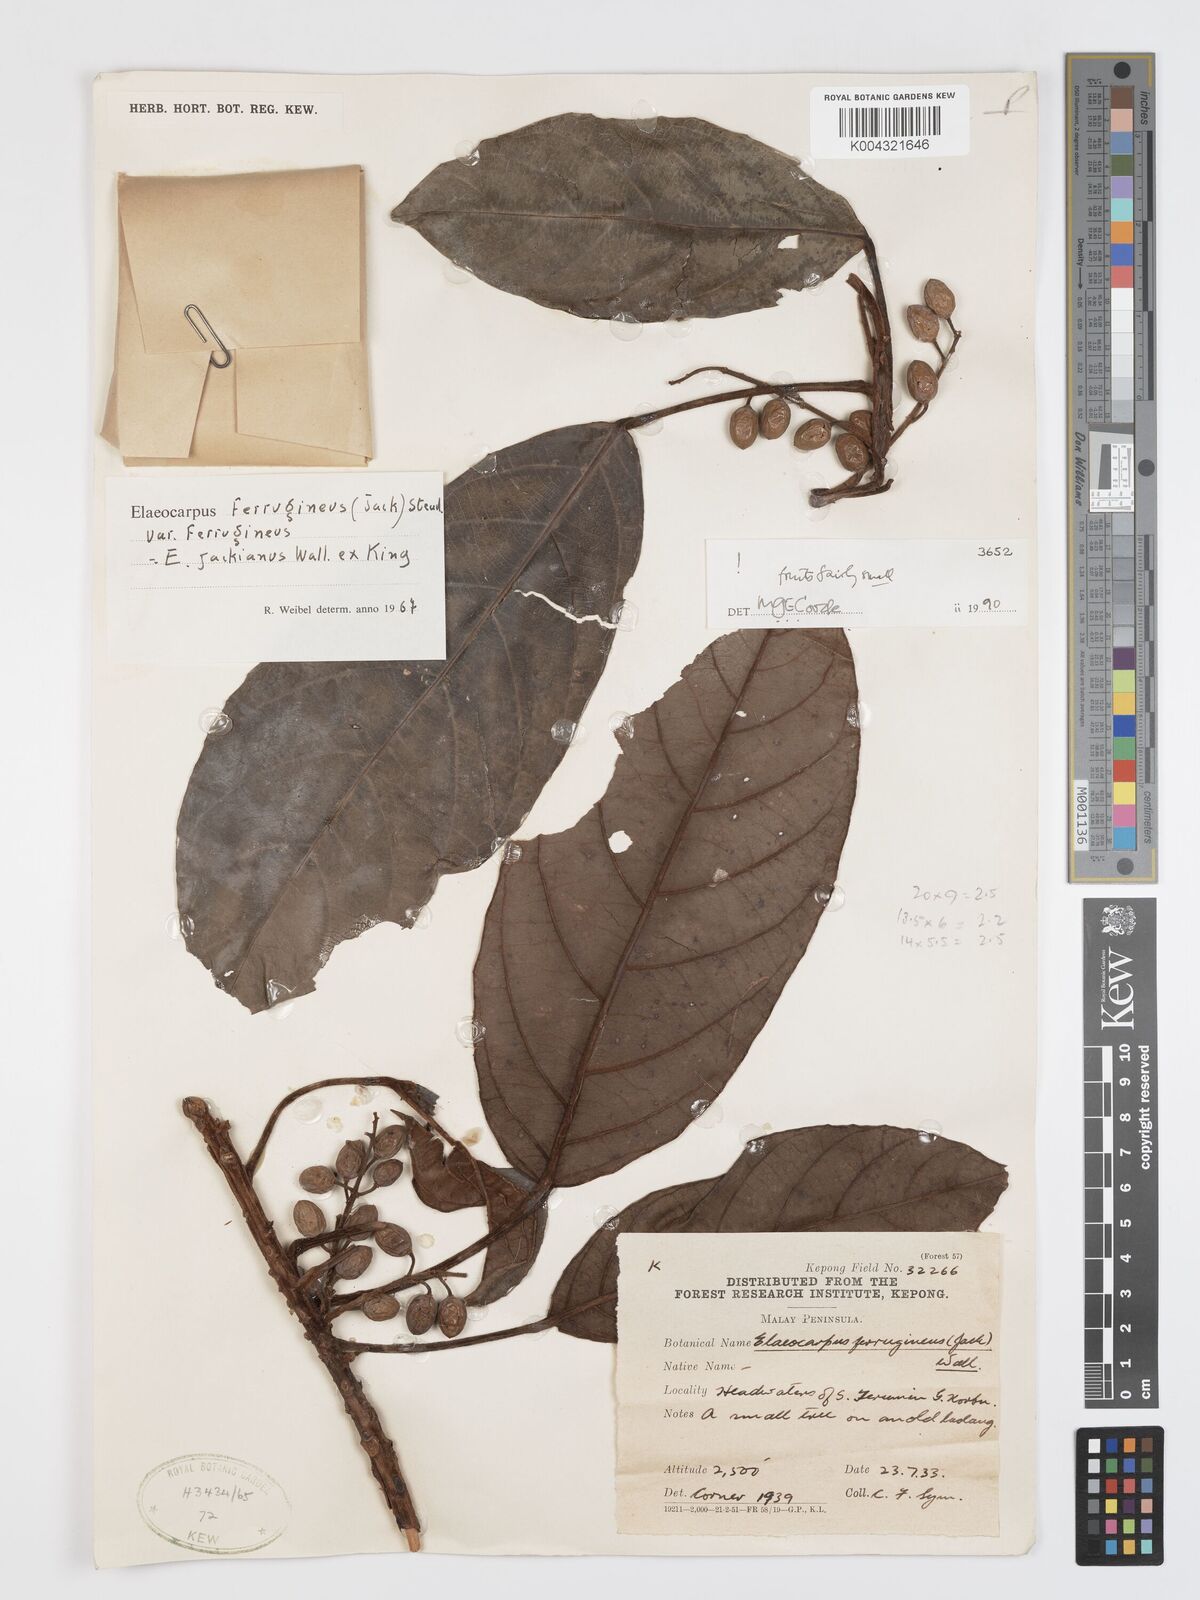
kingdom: Plantae
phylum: Tracheophyta
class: Magnoliopsida
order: Oxalidales
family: Elaeocarpaceae
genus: Elaeocarpus
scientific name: Elaeocarpus ferrugineus
